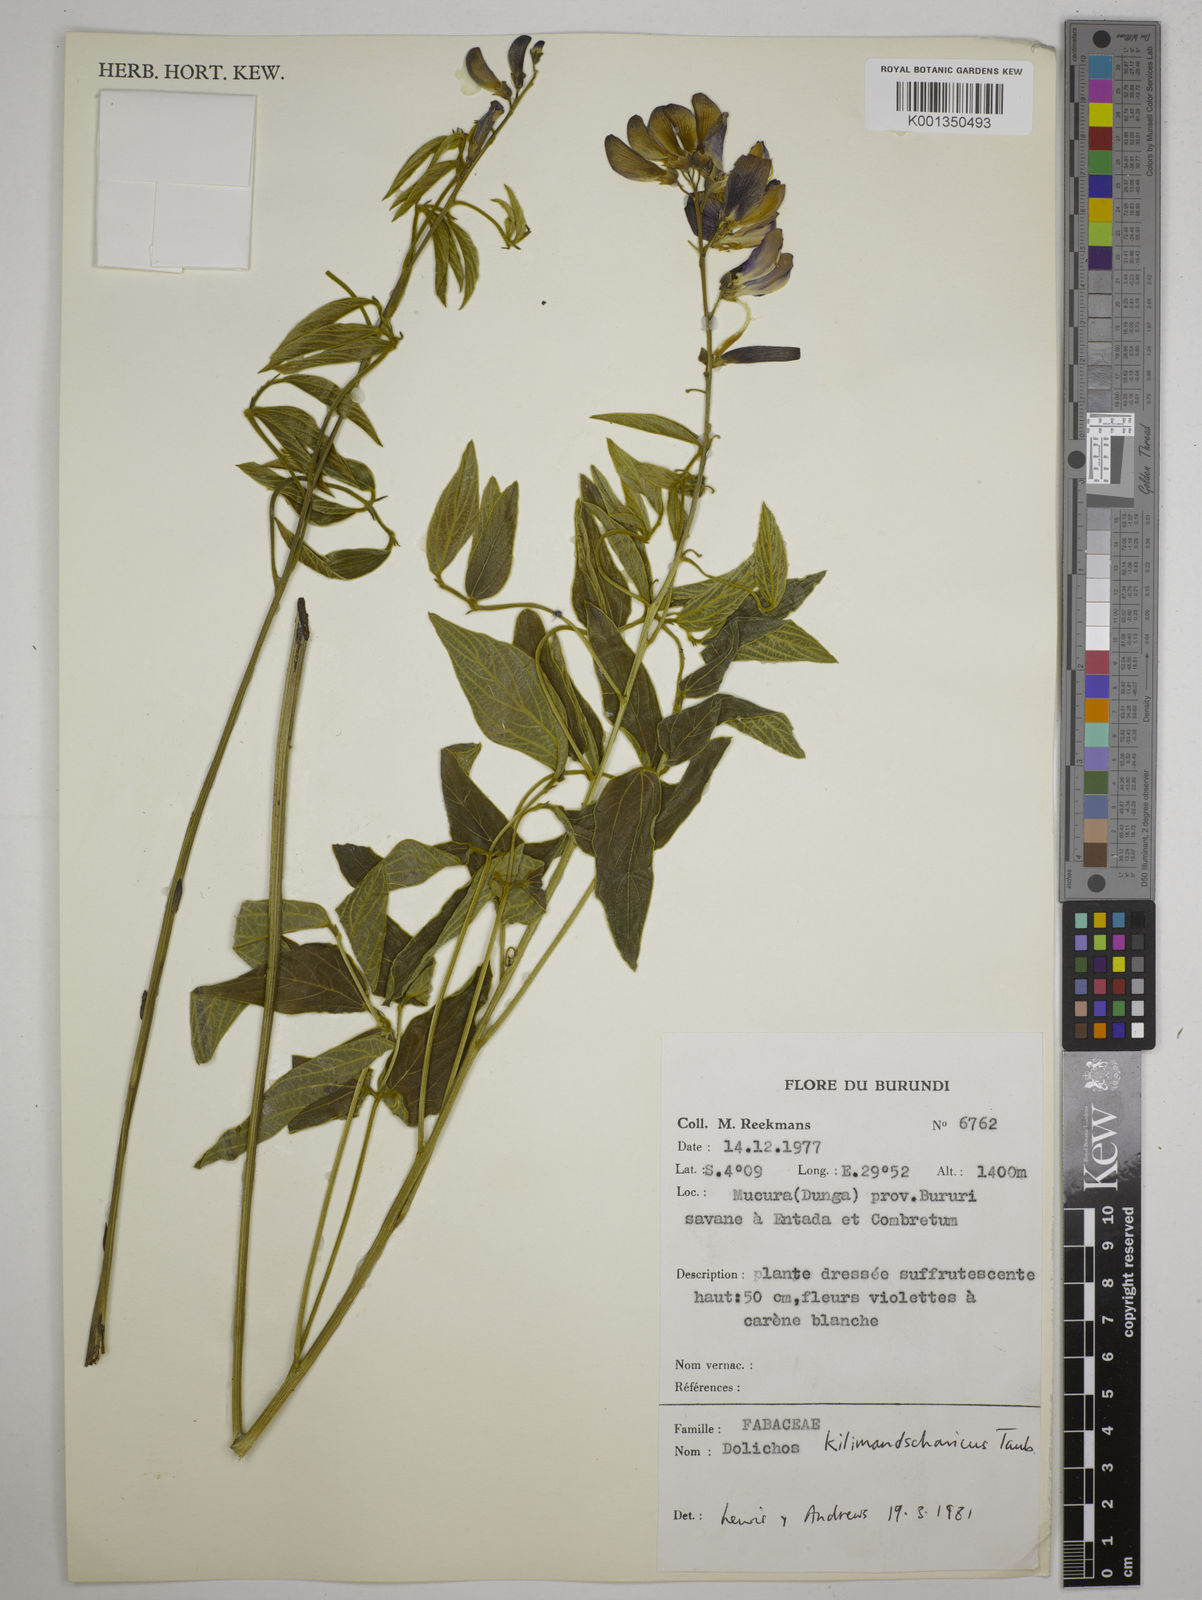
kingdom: Plantae
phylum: Tracheophyta
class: Magnoliopsida
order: Fabales
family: Fabaceae
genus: Dolichos
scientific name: Dolichos kilimandscharicus
